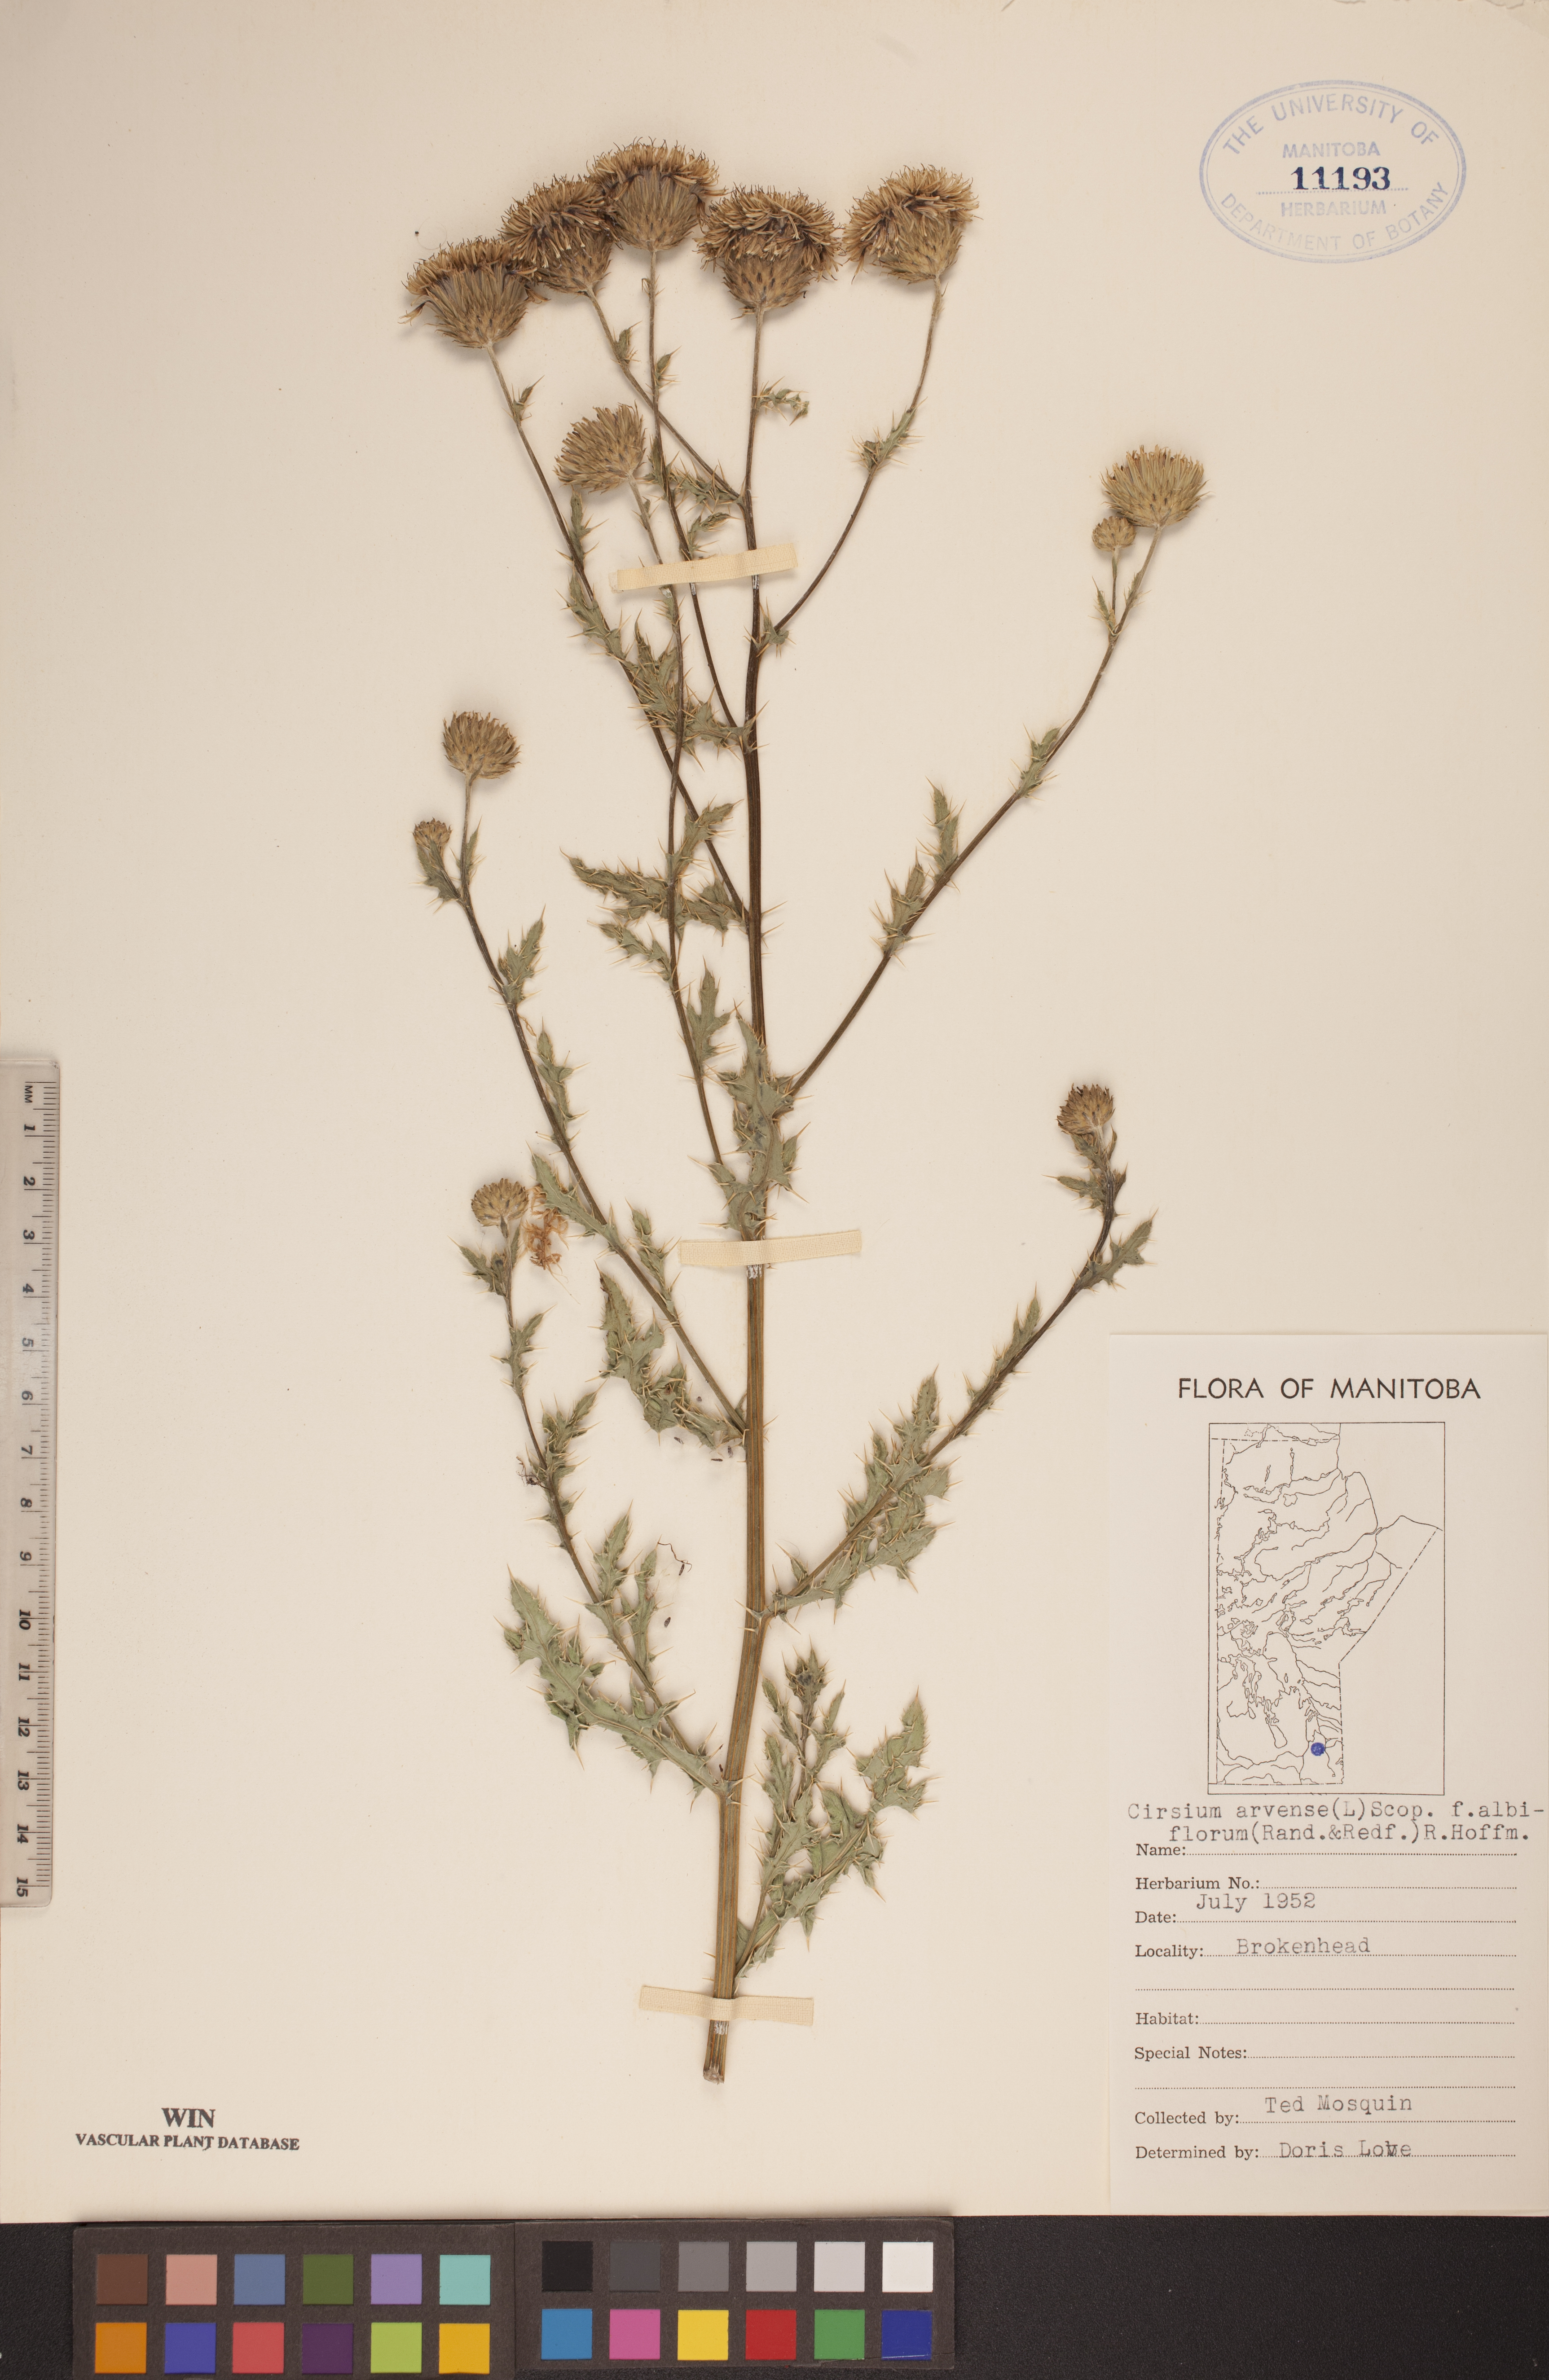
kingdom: Plantae
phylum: Tracheophyta
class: Magnoliopsida
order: Asterales
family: Asteraceae
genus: Cirsium
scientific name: Cirsium arvense
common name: Creeping thistle
